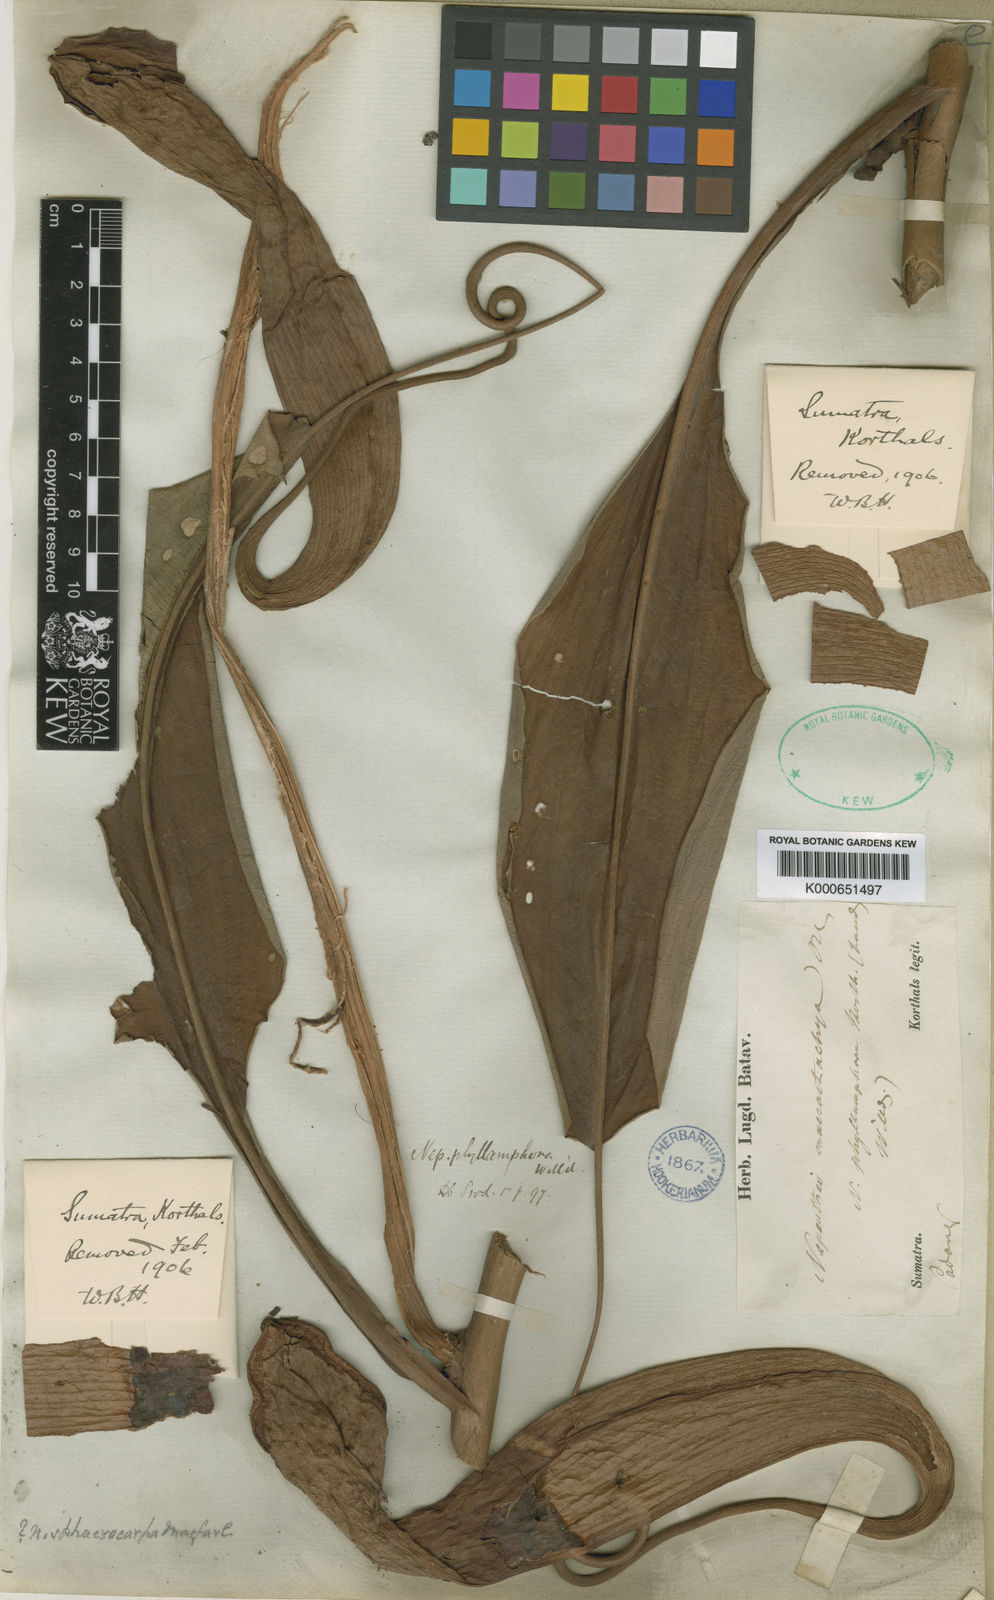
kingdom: Plantae
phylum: Tracheophyta
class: Magnoliopsida
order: Caryophyllales
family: Nepenthaceae
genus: Nepenthes
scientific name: Nepenthes mirabilis
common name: Tropical pitcherplant
